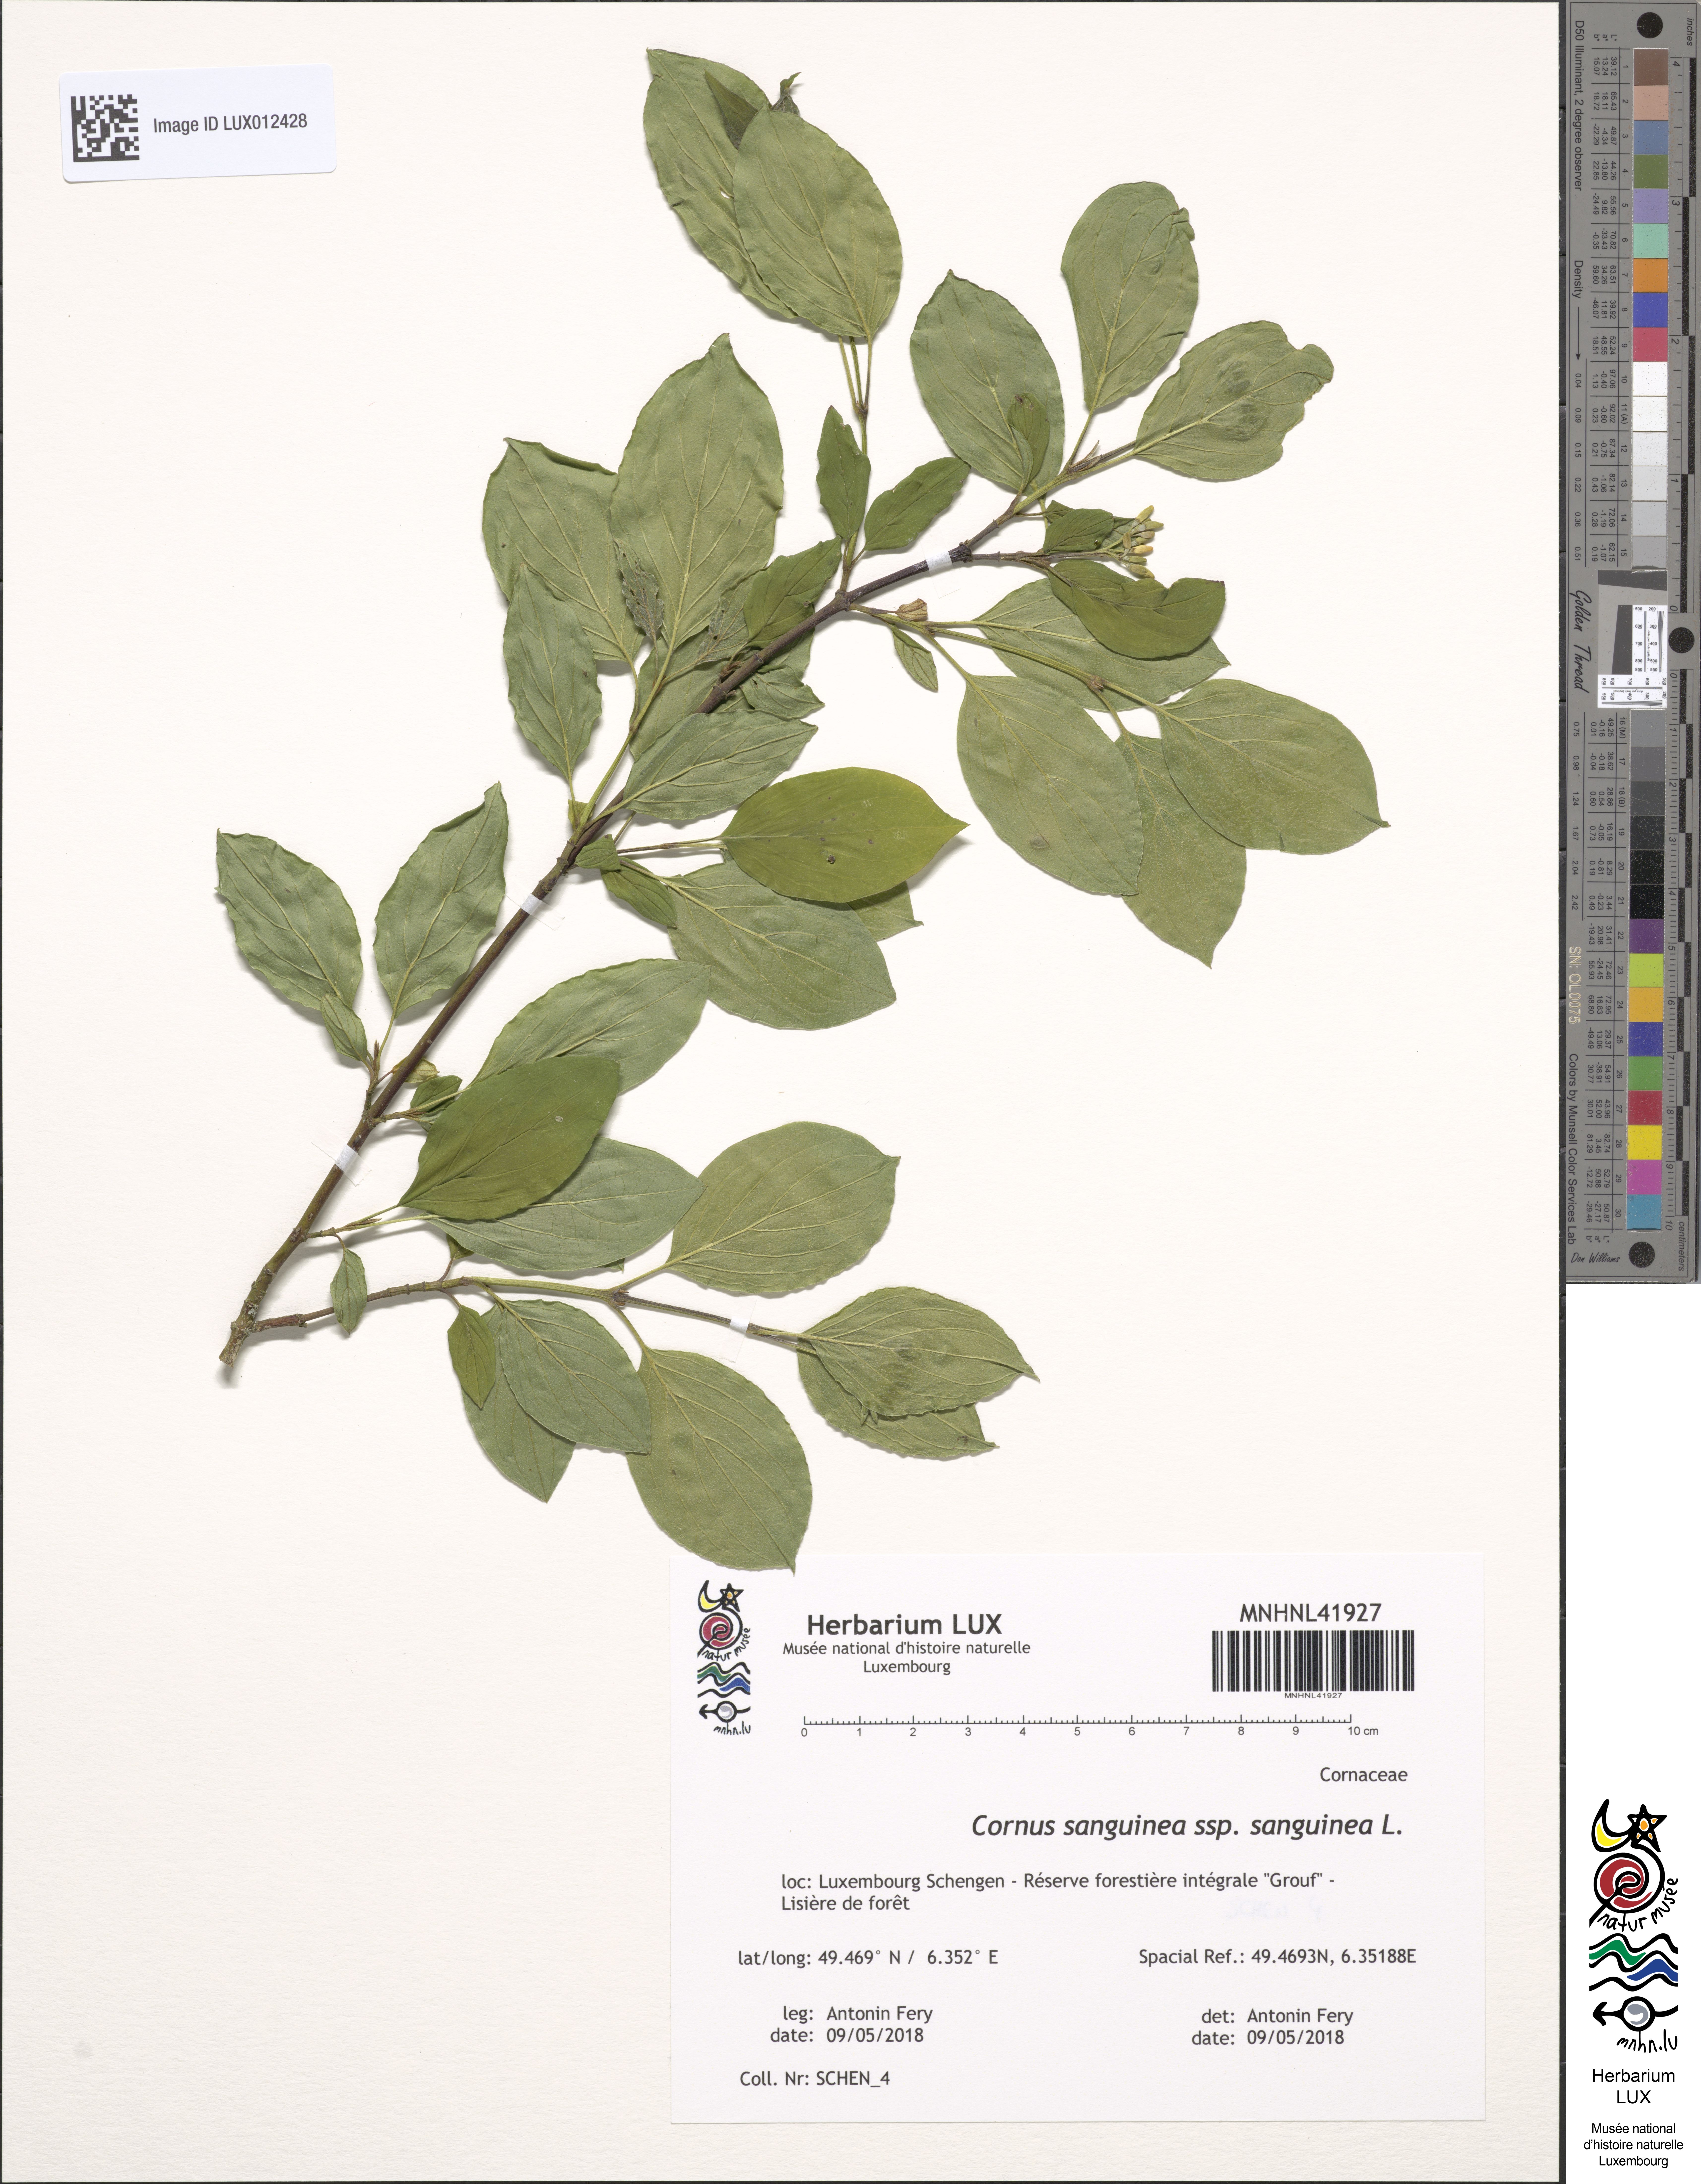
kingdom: Plantae
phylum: Tracheophyta
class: Magnoliopsida
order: Cornales
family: Cornaceae
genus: Cornus
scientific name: Cornus sanguinea
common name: Dogwood
